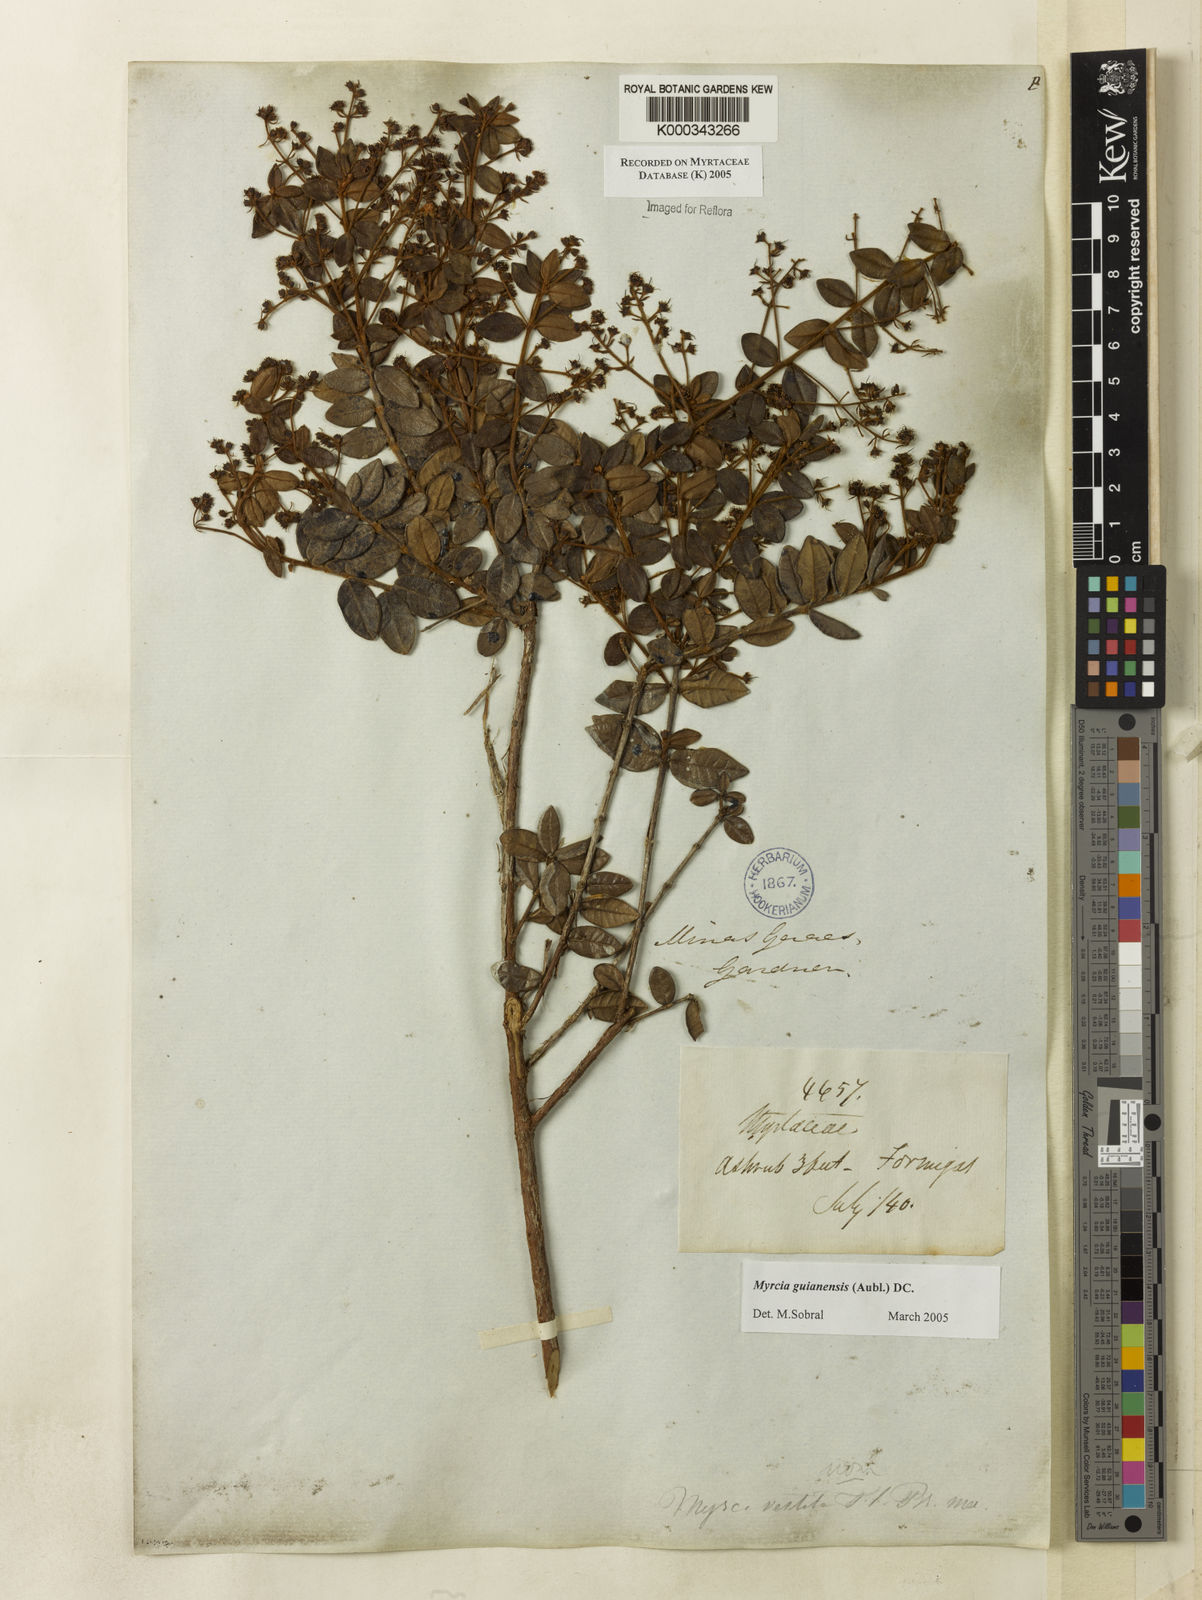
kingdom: Plantae
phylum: Tracheophyta
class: Magnoliopsida
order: Myrtales
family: Myrtaceae
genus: Myrcia
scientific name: Myrcia guianensis
